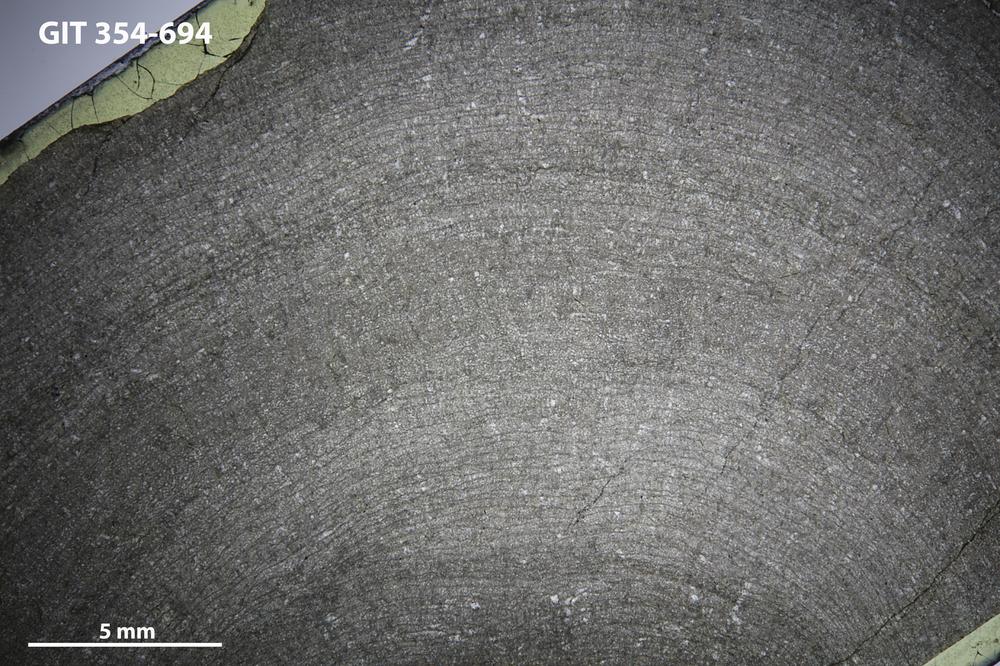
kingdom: Animalia
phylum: Porifera
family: Densastromatidae
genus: Araneosustroma
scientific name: Araneosustroma
